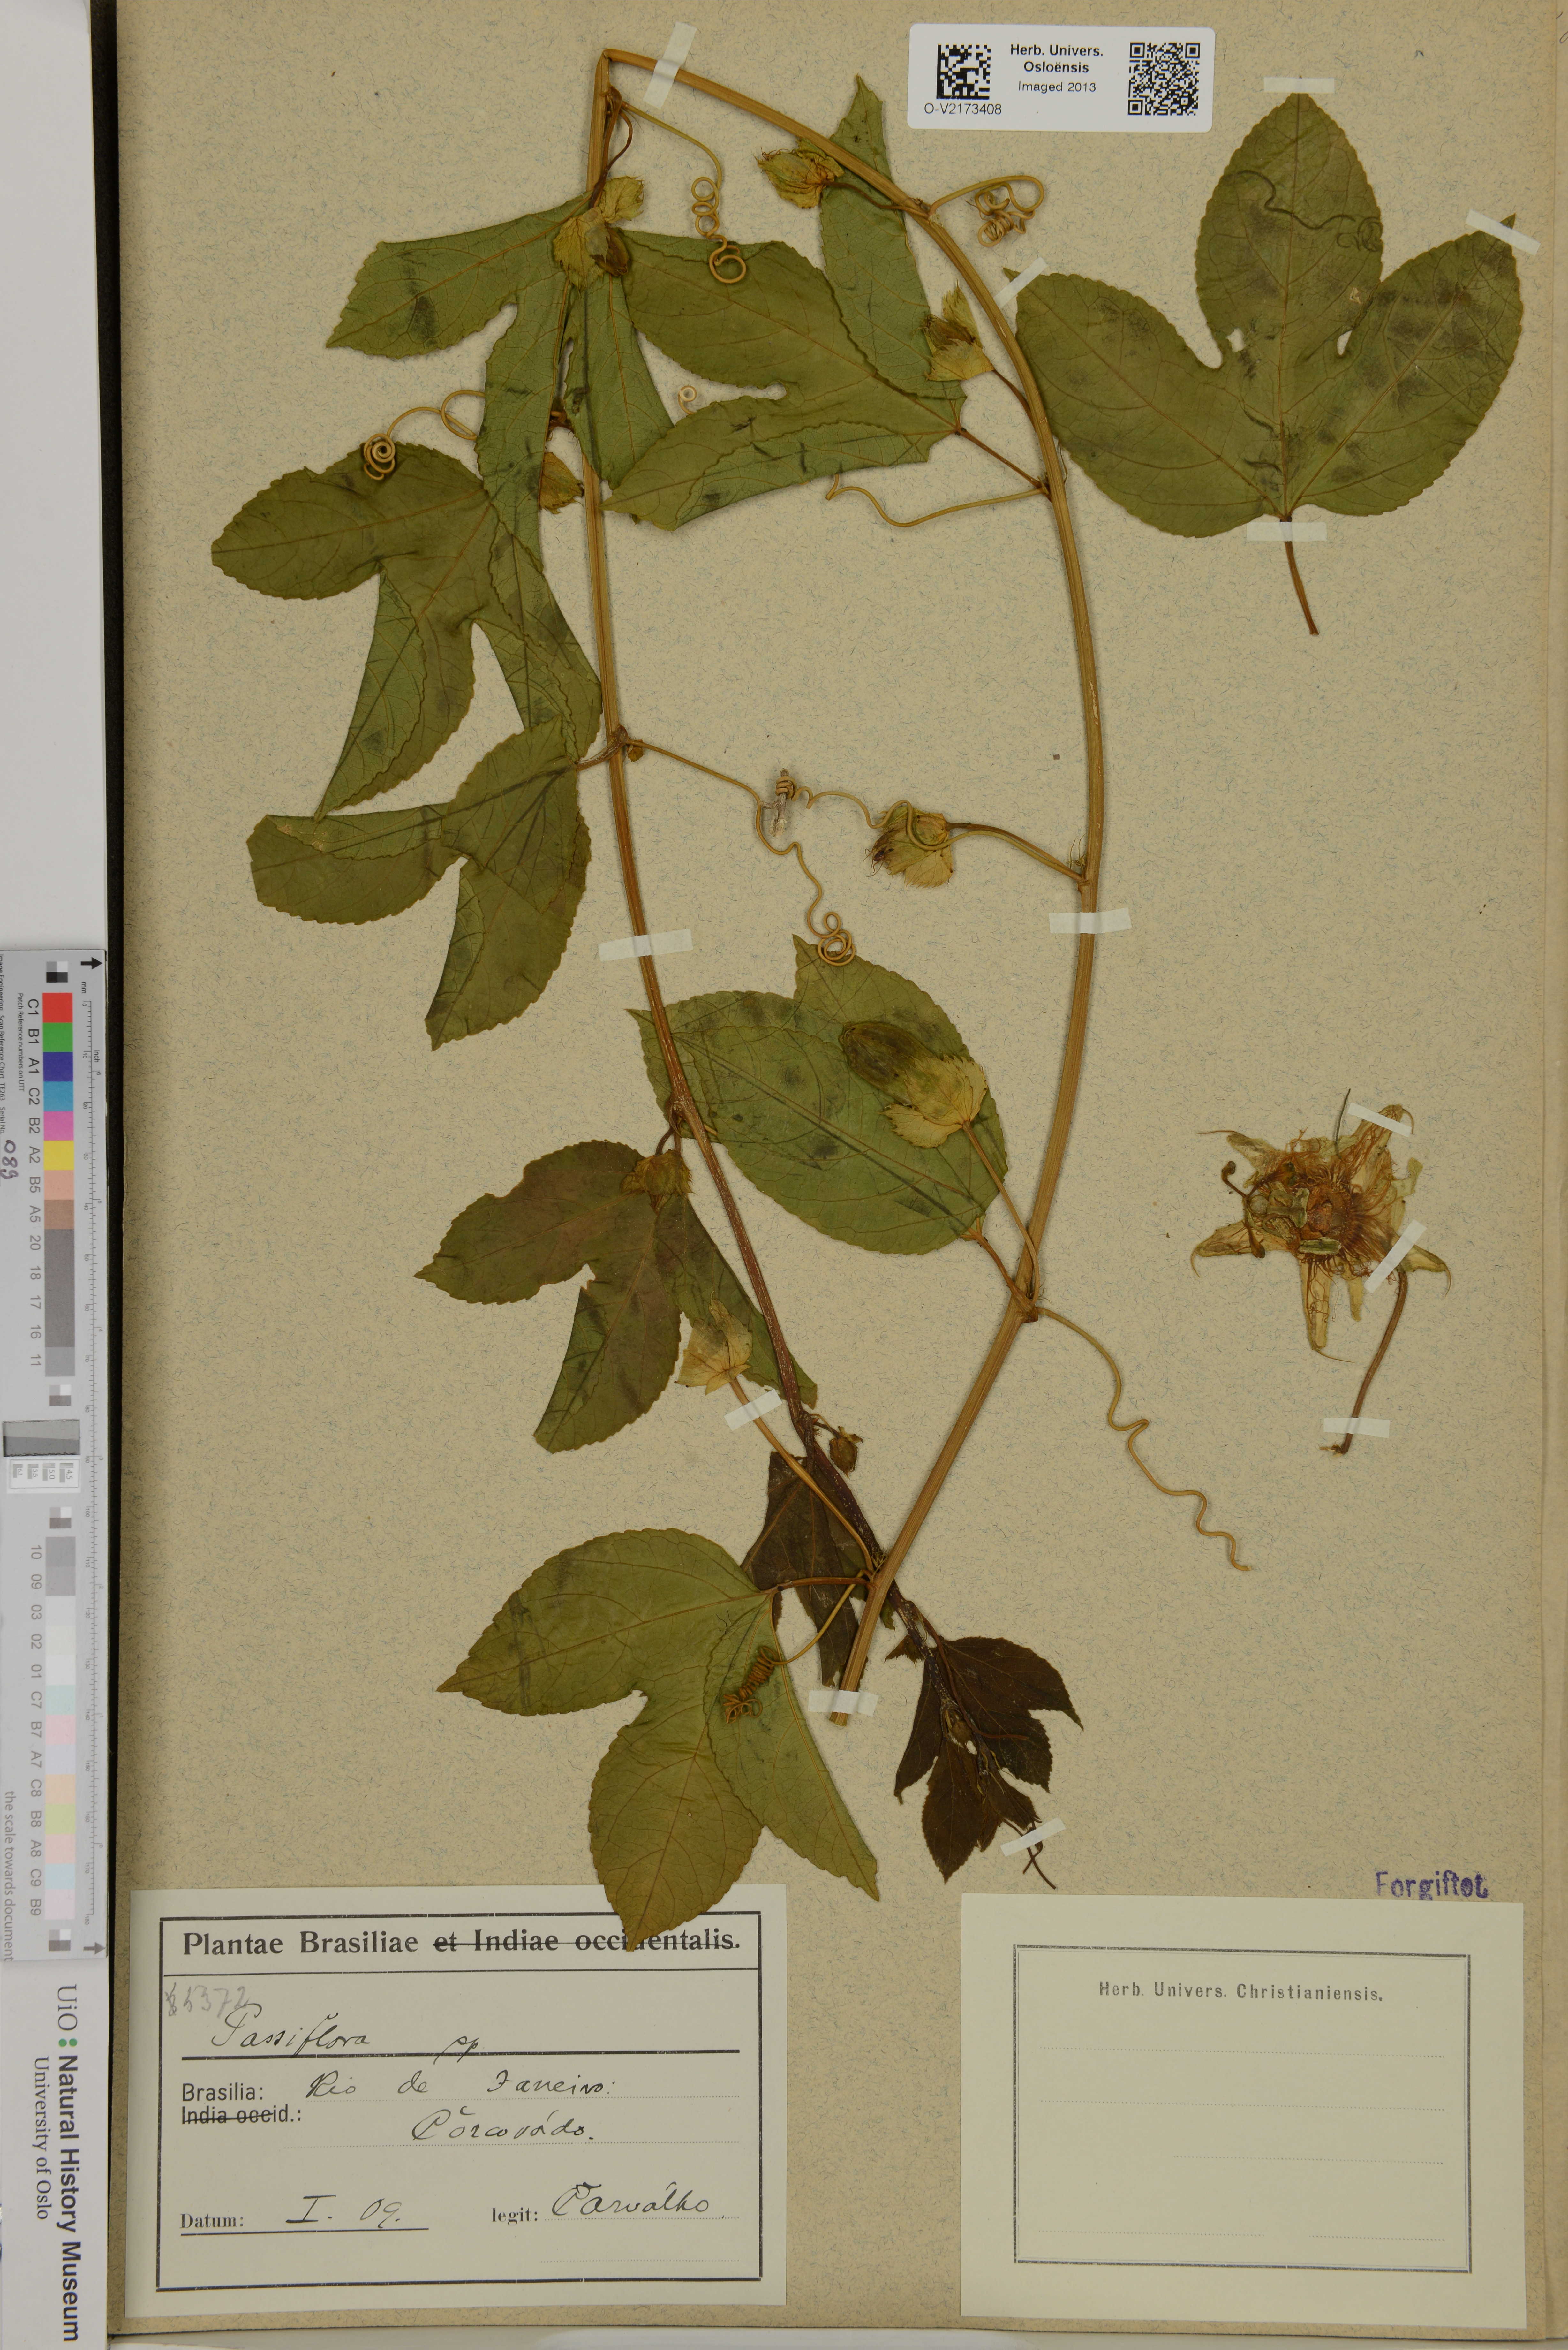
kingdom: Plantae
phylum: Tracheophyta
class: Magnoliopsida
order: Malpighiales
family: Passifloraceae
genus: Passiflora
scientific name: Passiflora
